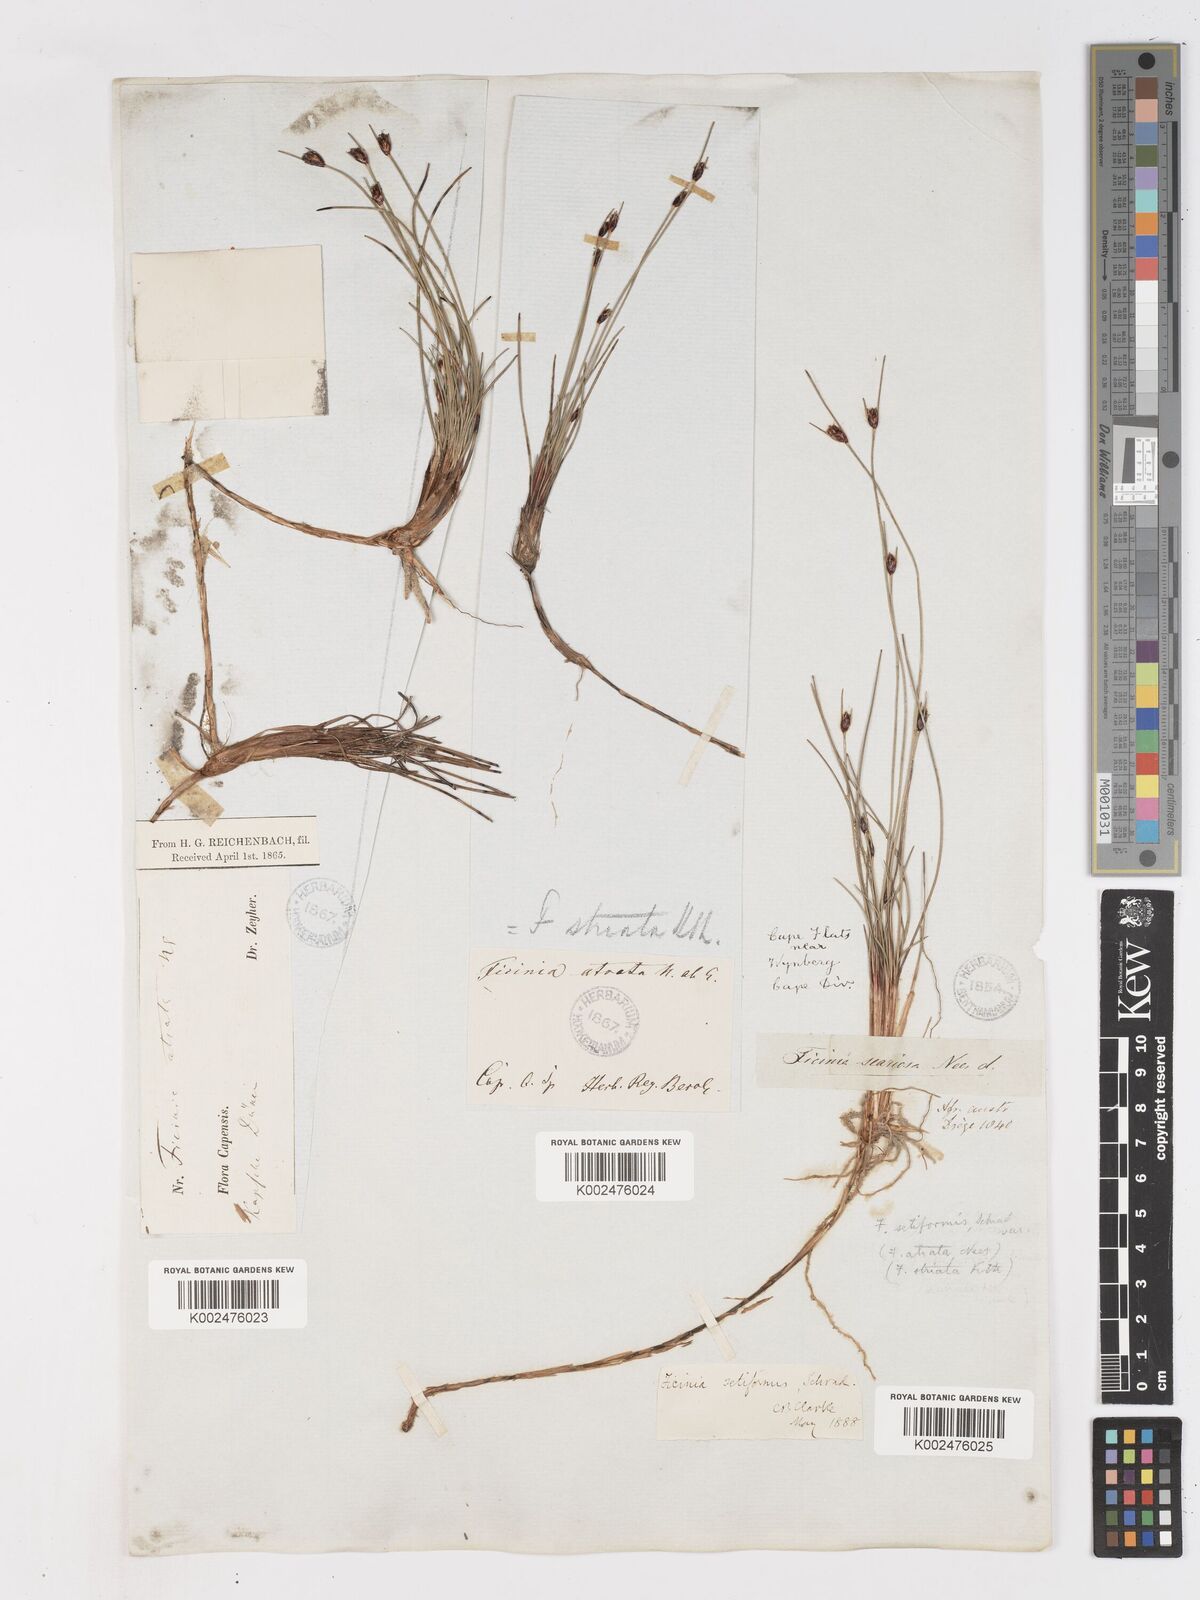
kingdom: Plantae
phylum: Tracheophyta
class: Liliopsida
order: Poales
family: Cyperaceae
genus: Ficinia
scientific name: Ficinia indica
